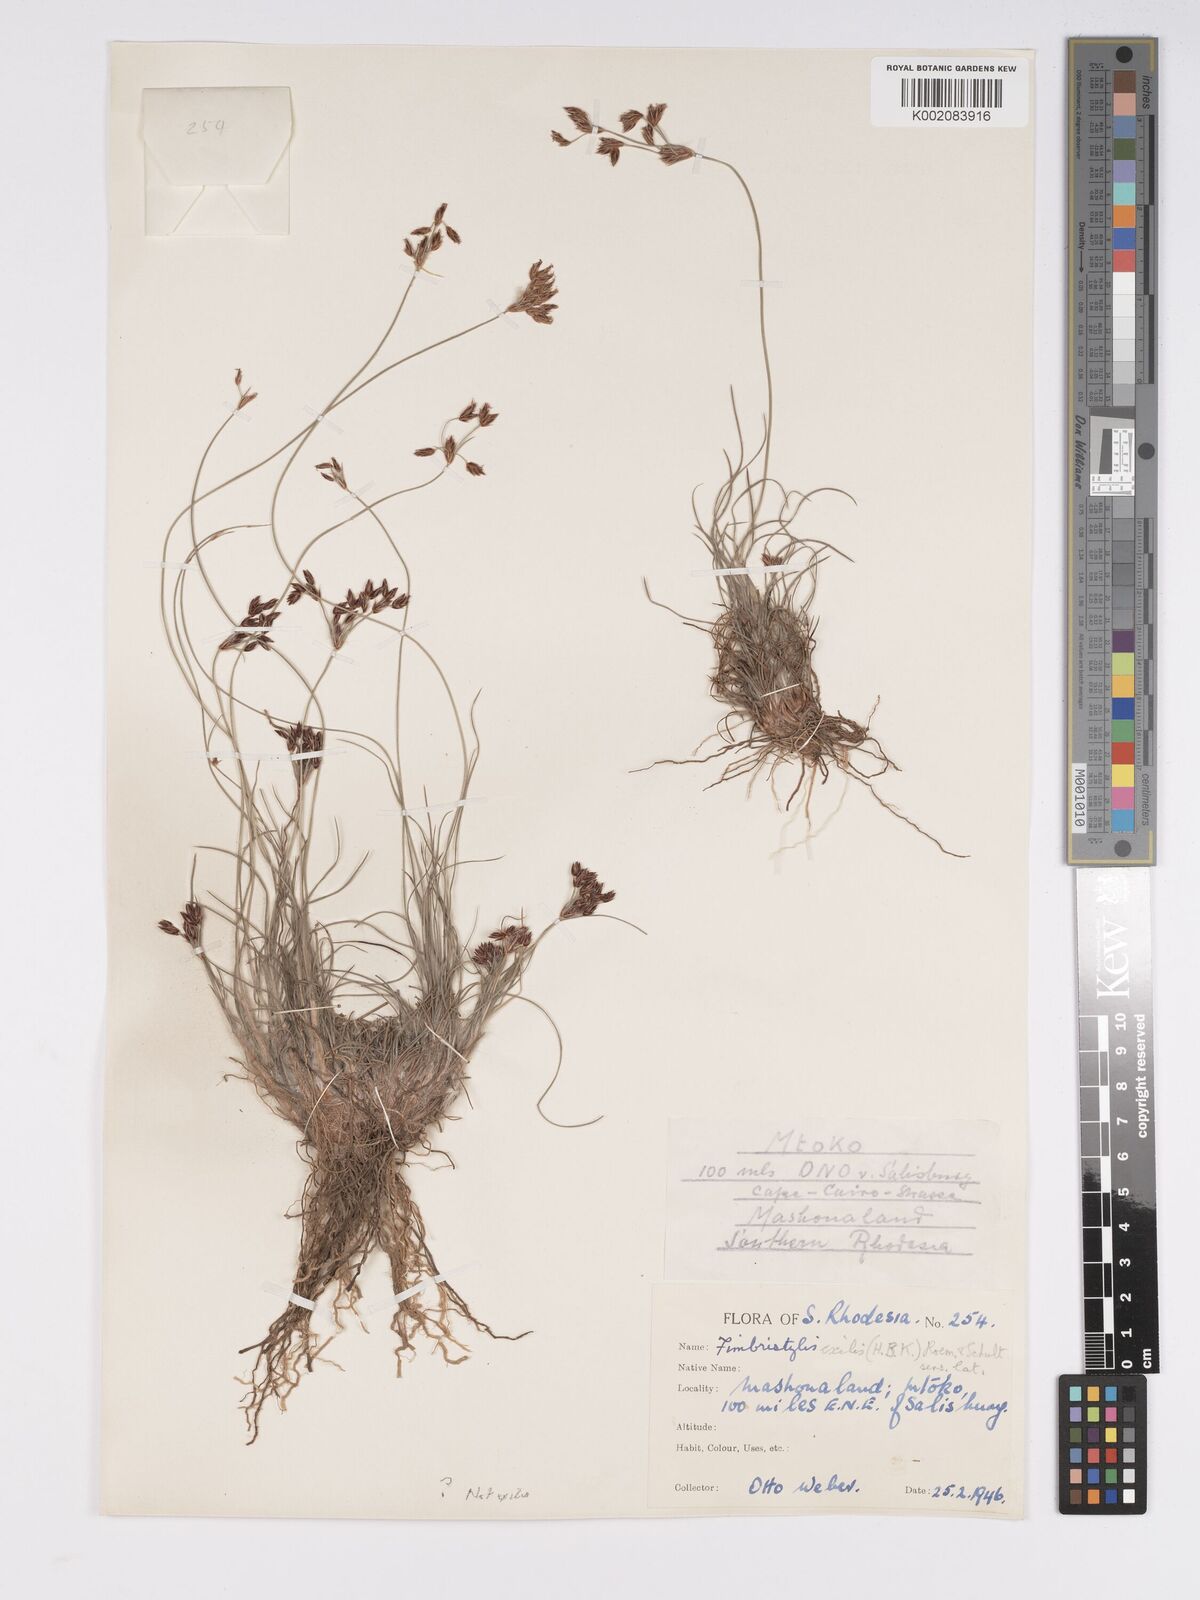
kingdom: Plantae
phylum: Tracheophyta
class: Liliopsida
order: Poales
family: Cyperaceae
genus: Bulbostylis
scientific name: Bulbostylis hispidula
